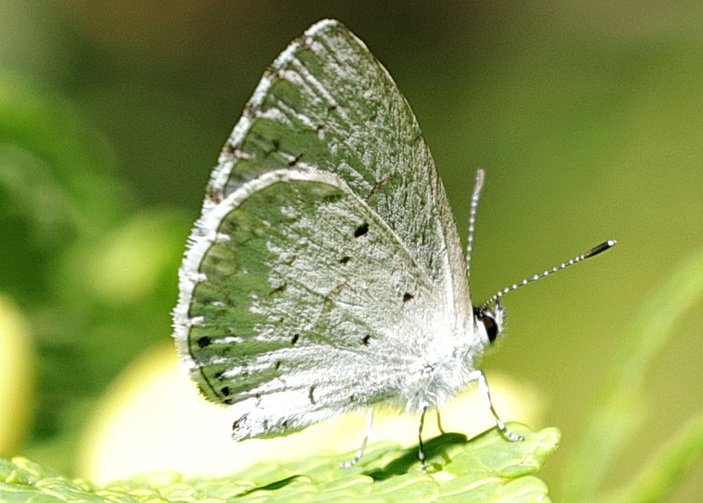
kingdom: Animalia
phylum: Arthropoda
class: Insecta
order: Lepidoptera
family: Lycaenidae
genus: Cyaniris
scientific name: Cyaniris neglecta
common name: Summer Azure
